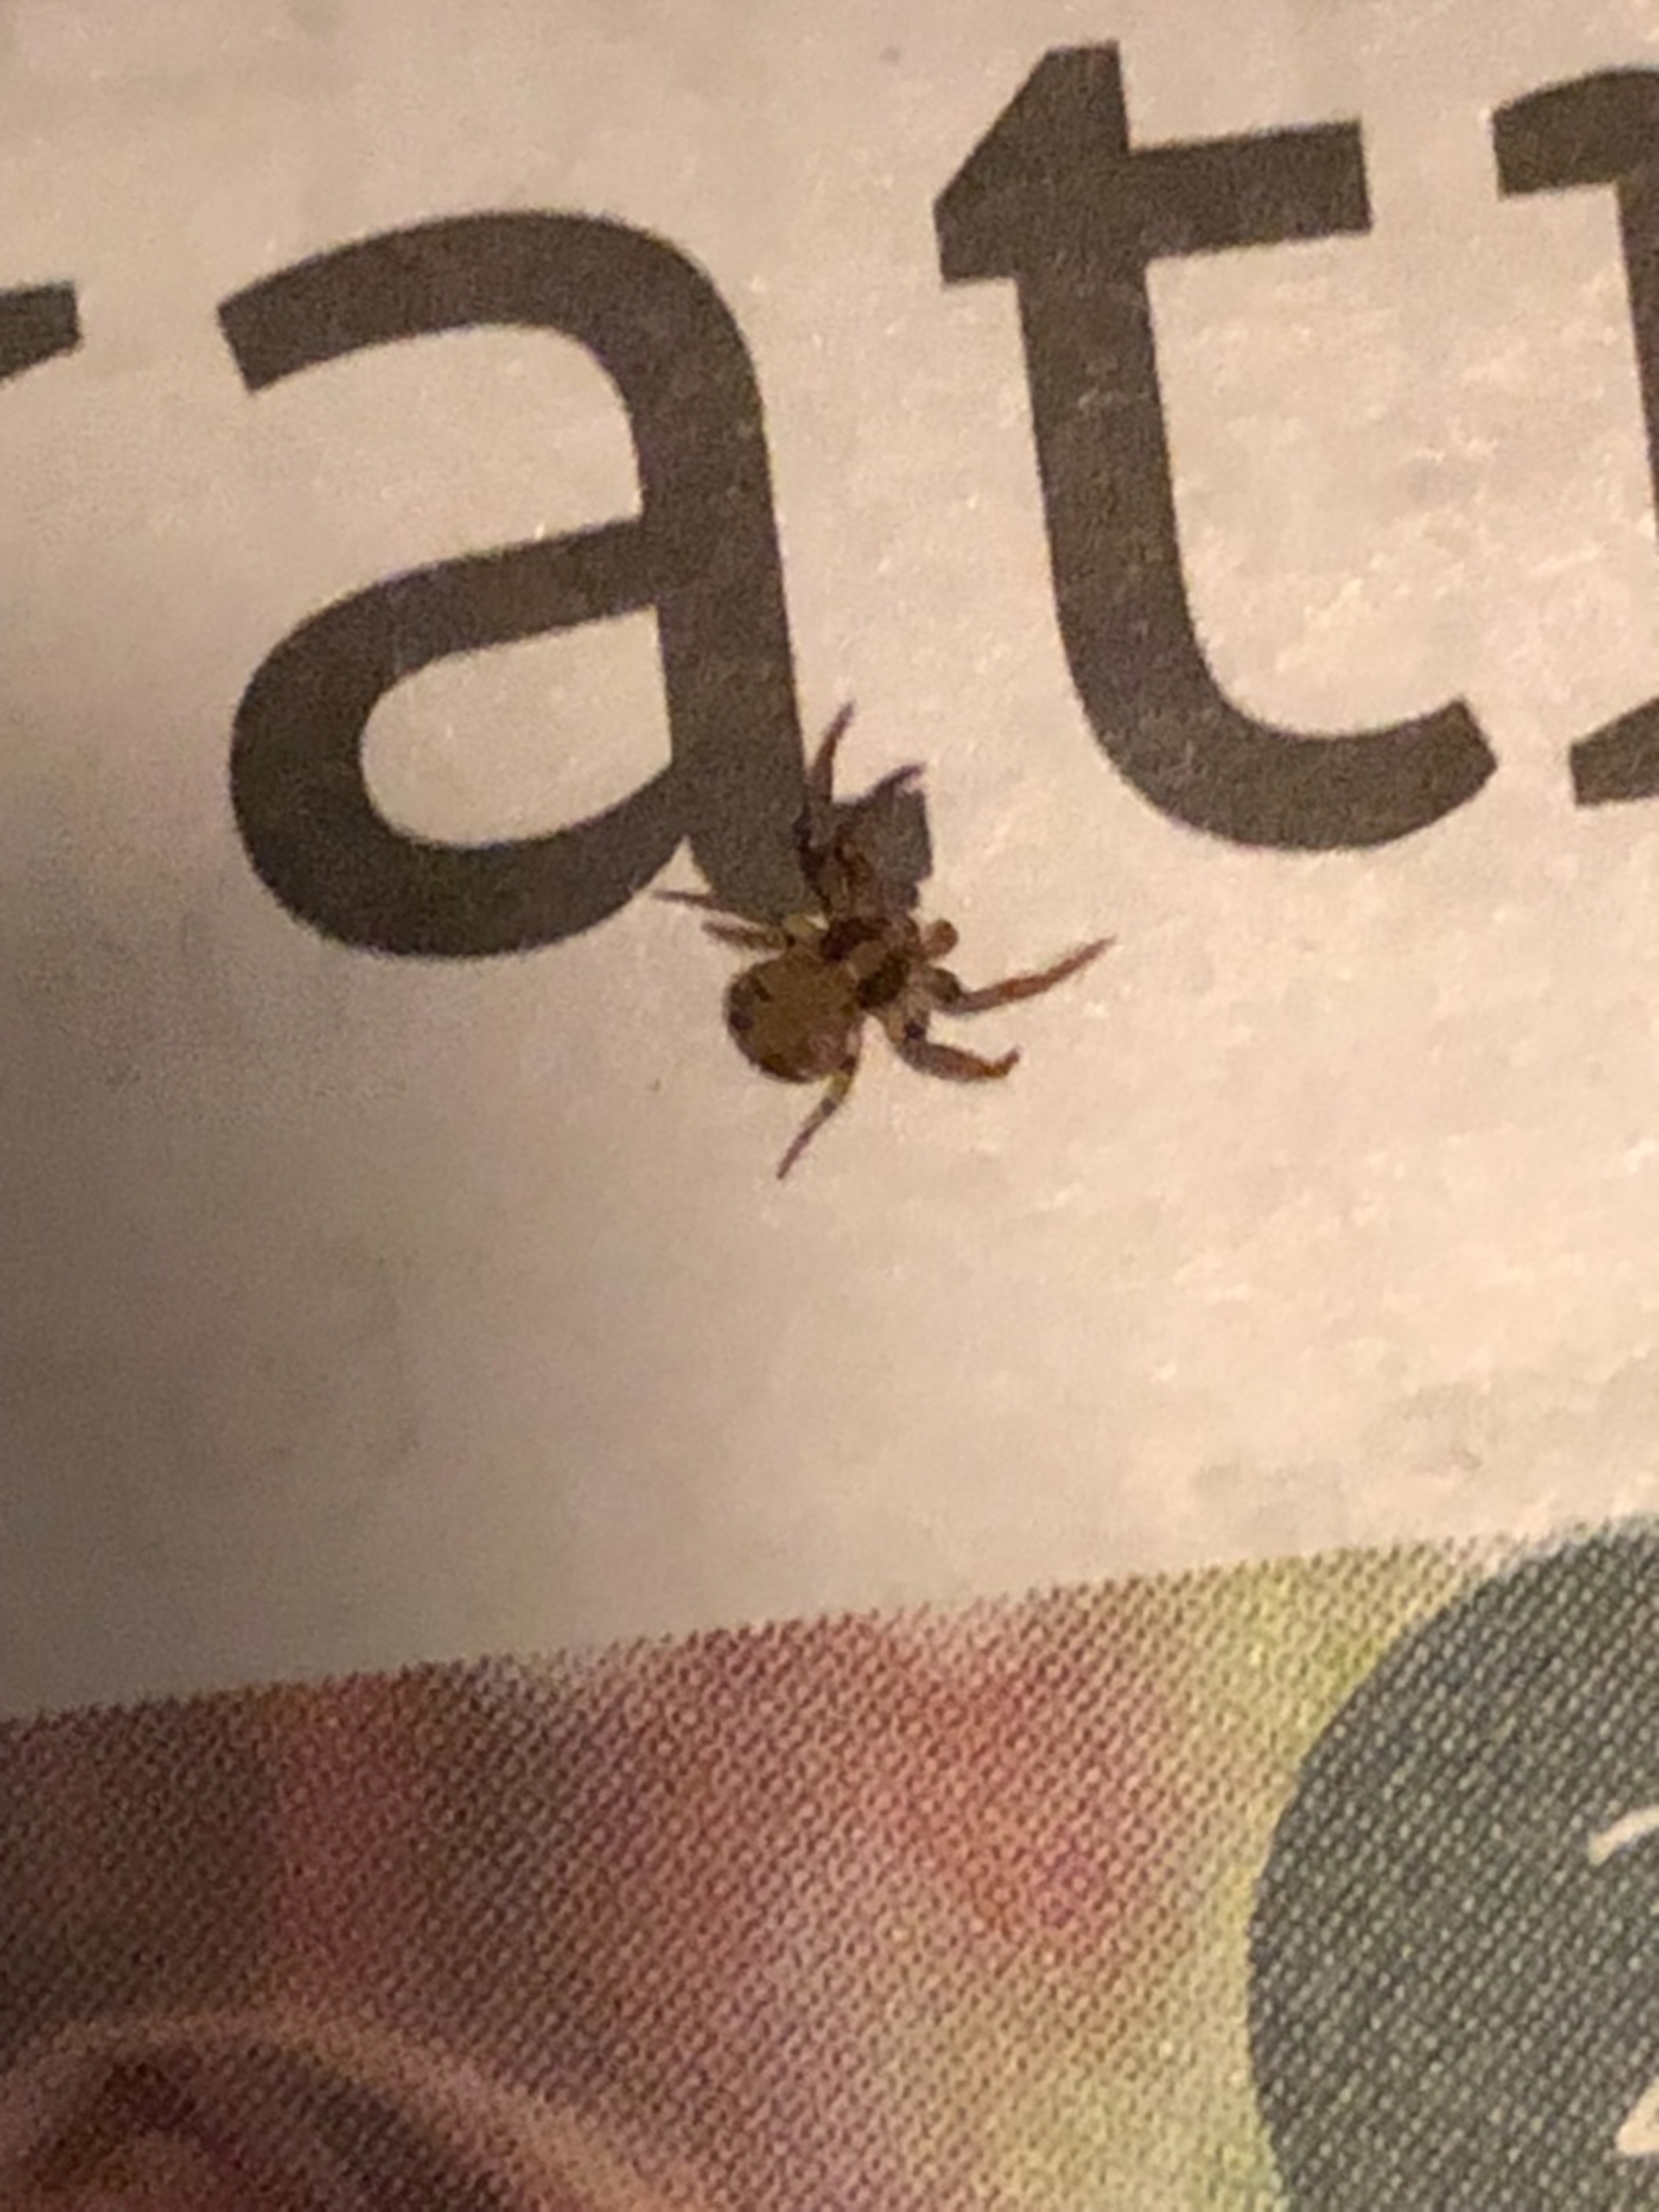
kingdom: Animalia
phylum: Arthropoda
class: Arachnida
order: Araneae
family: Thomisidae
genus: Ozyptila
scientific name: Ozyptila
